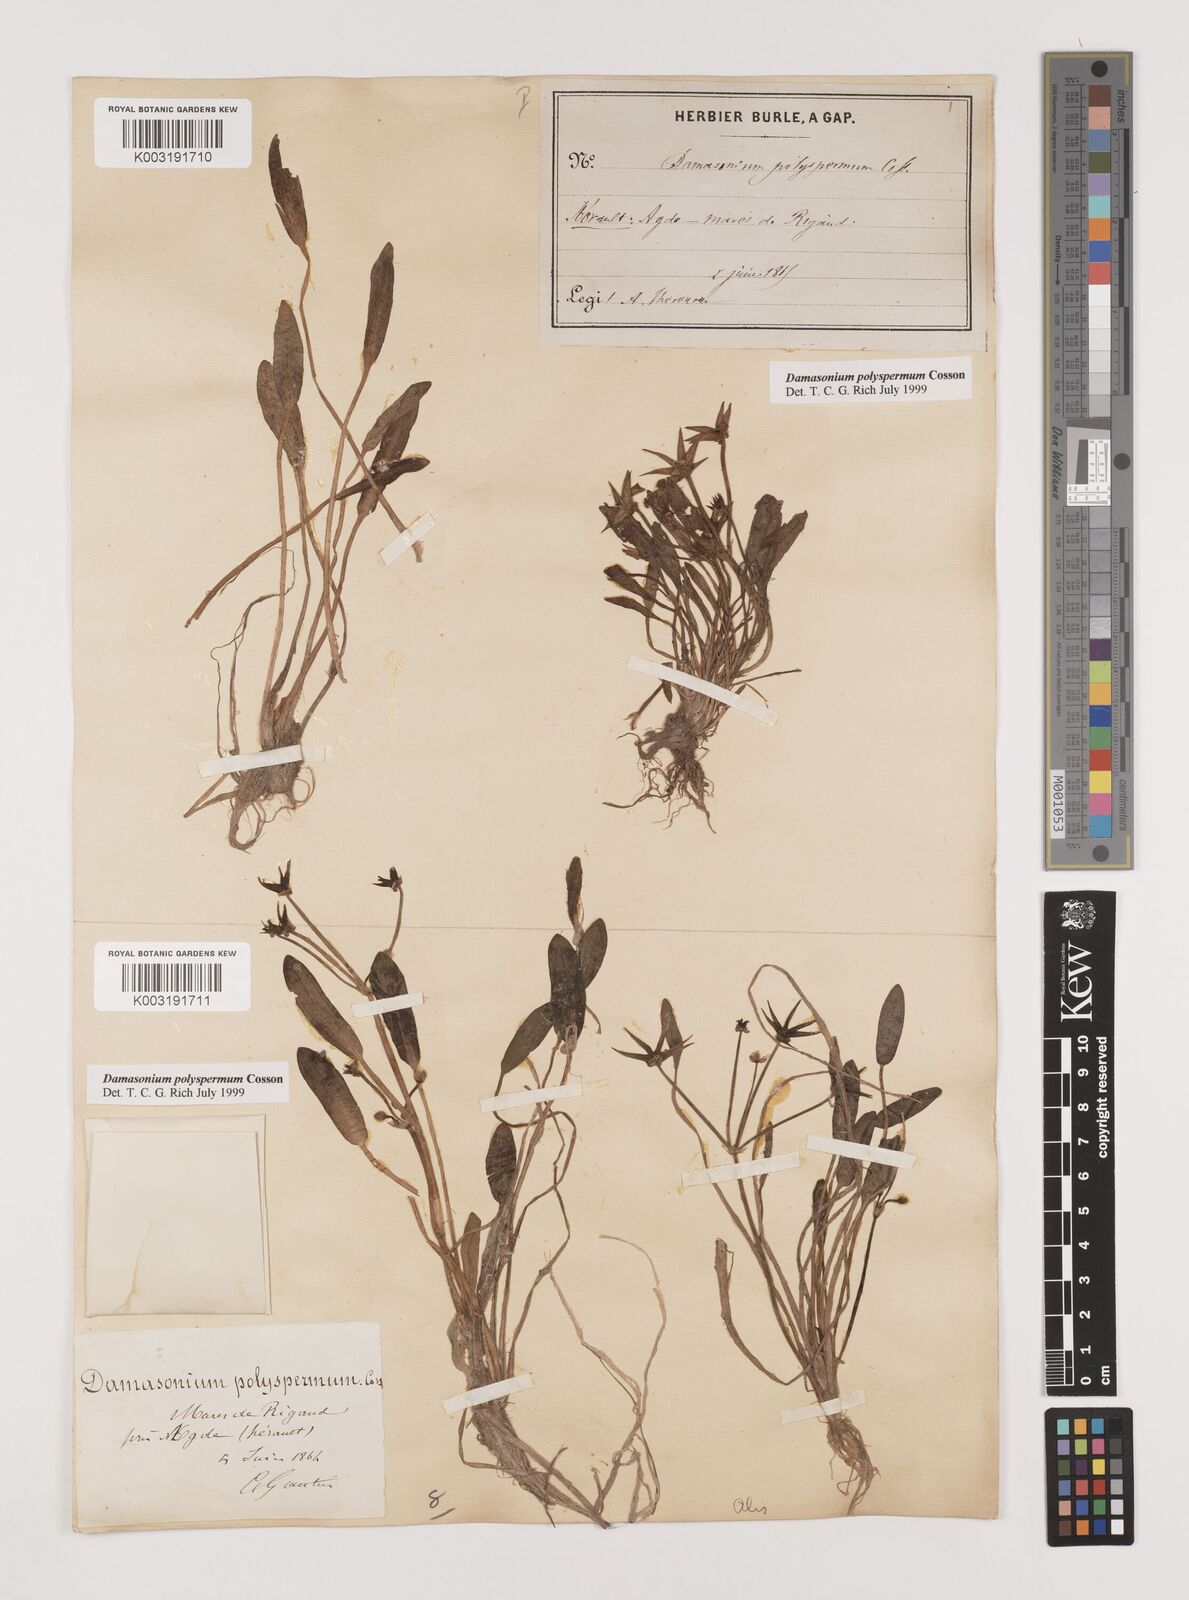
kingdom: Plantae
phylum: Tracheophyta
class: Liliopsida
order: Alismatales
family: Alismataceae
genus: Damasonium
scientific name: Damasonium polyspermum
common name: Starfruit
